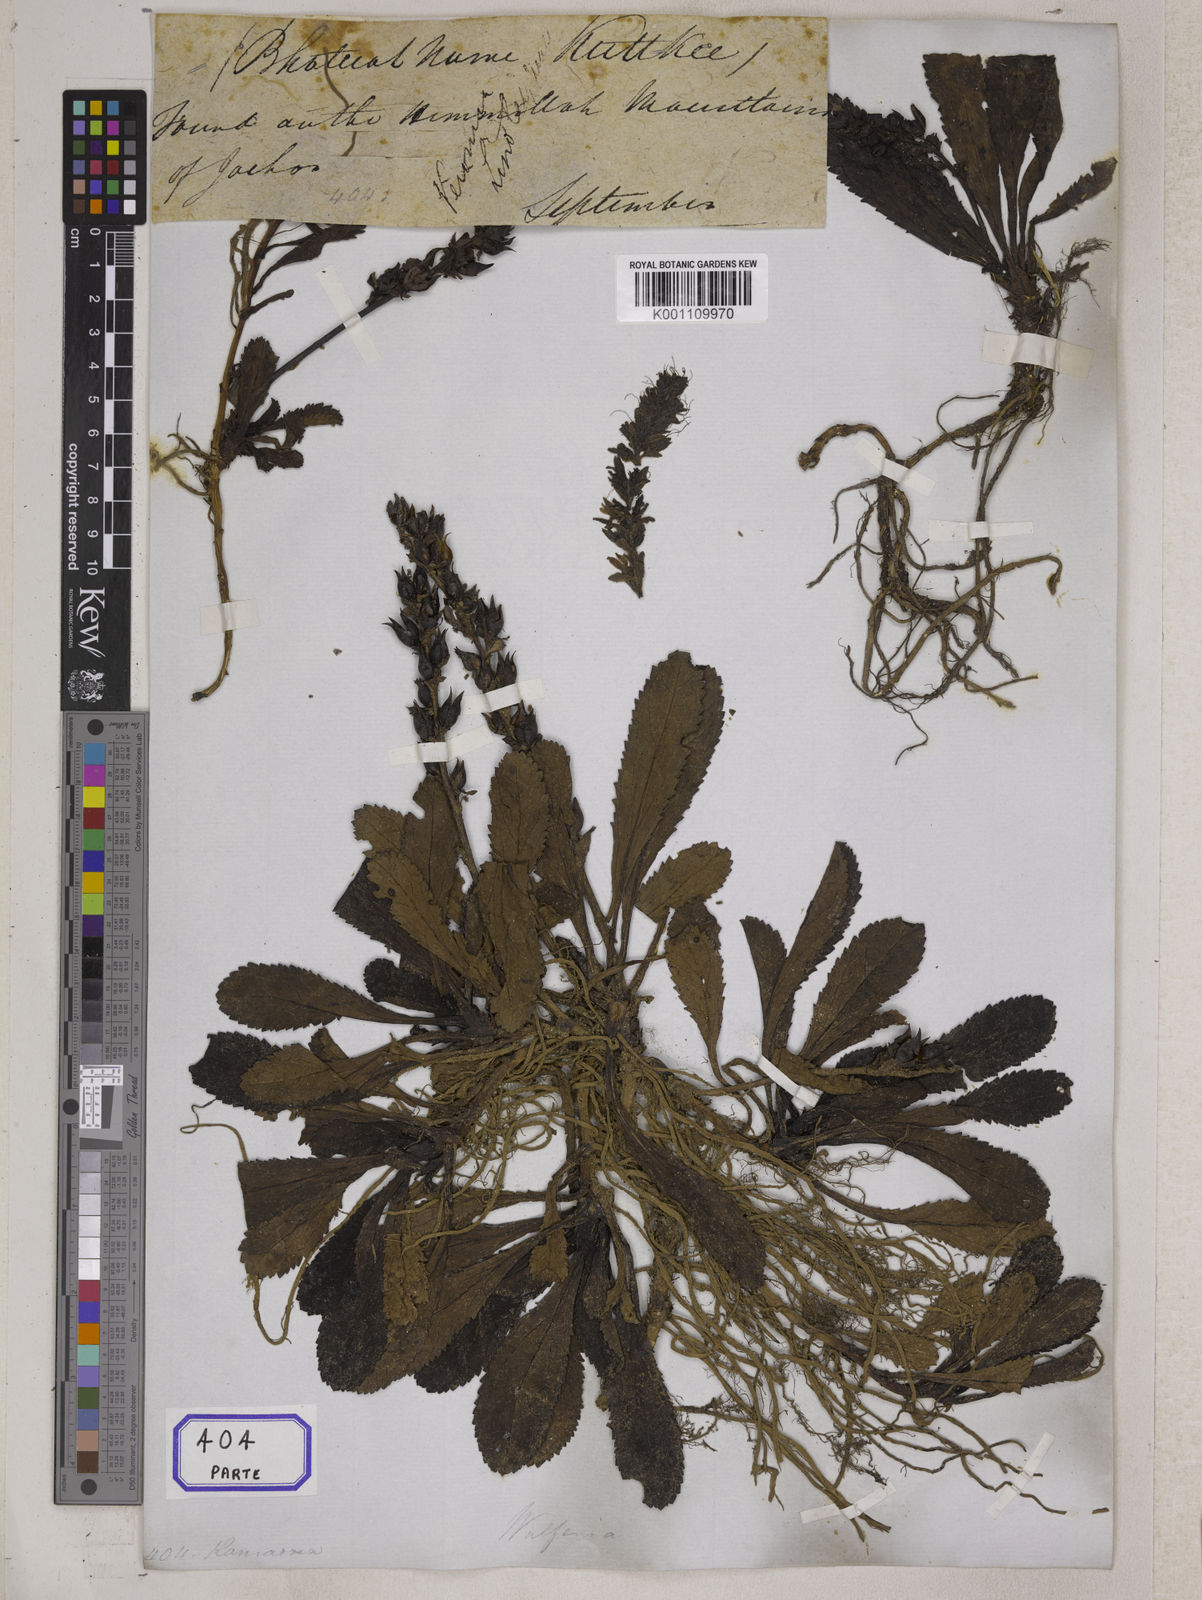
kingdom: Plantae
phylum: Tracheophyta
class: Magnoliopsida
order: Lamiales
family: Plantaginaceae
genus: Picrorhiza
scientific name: Picrorhiza
